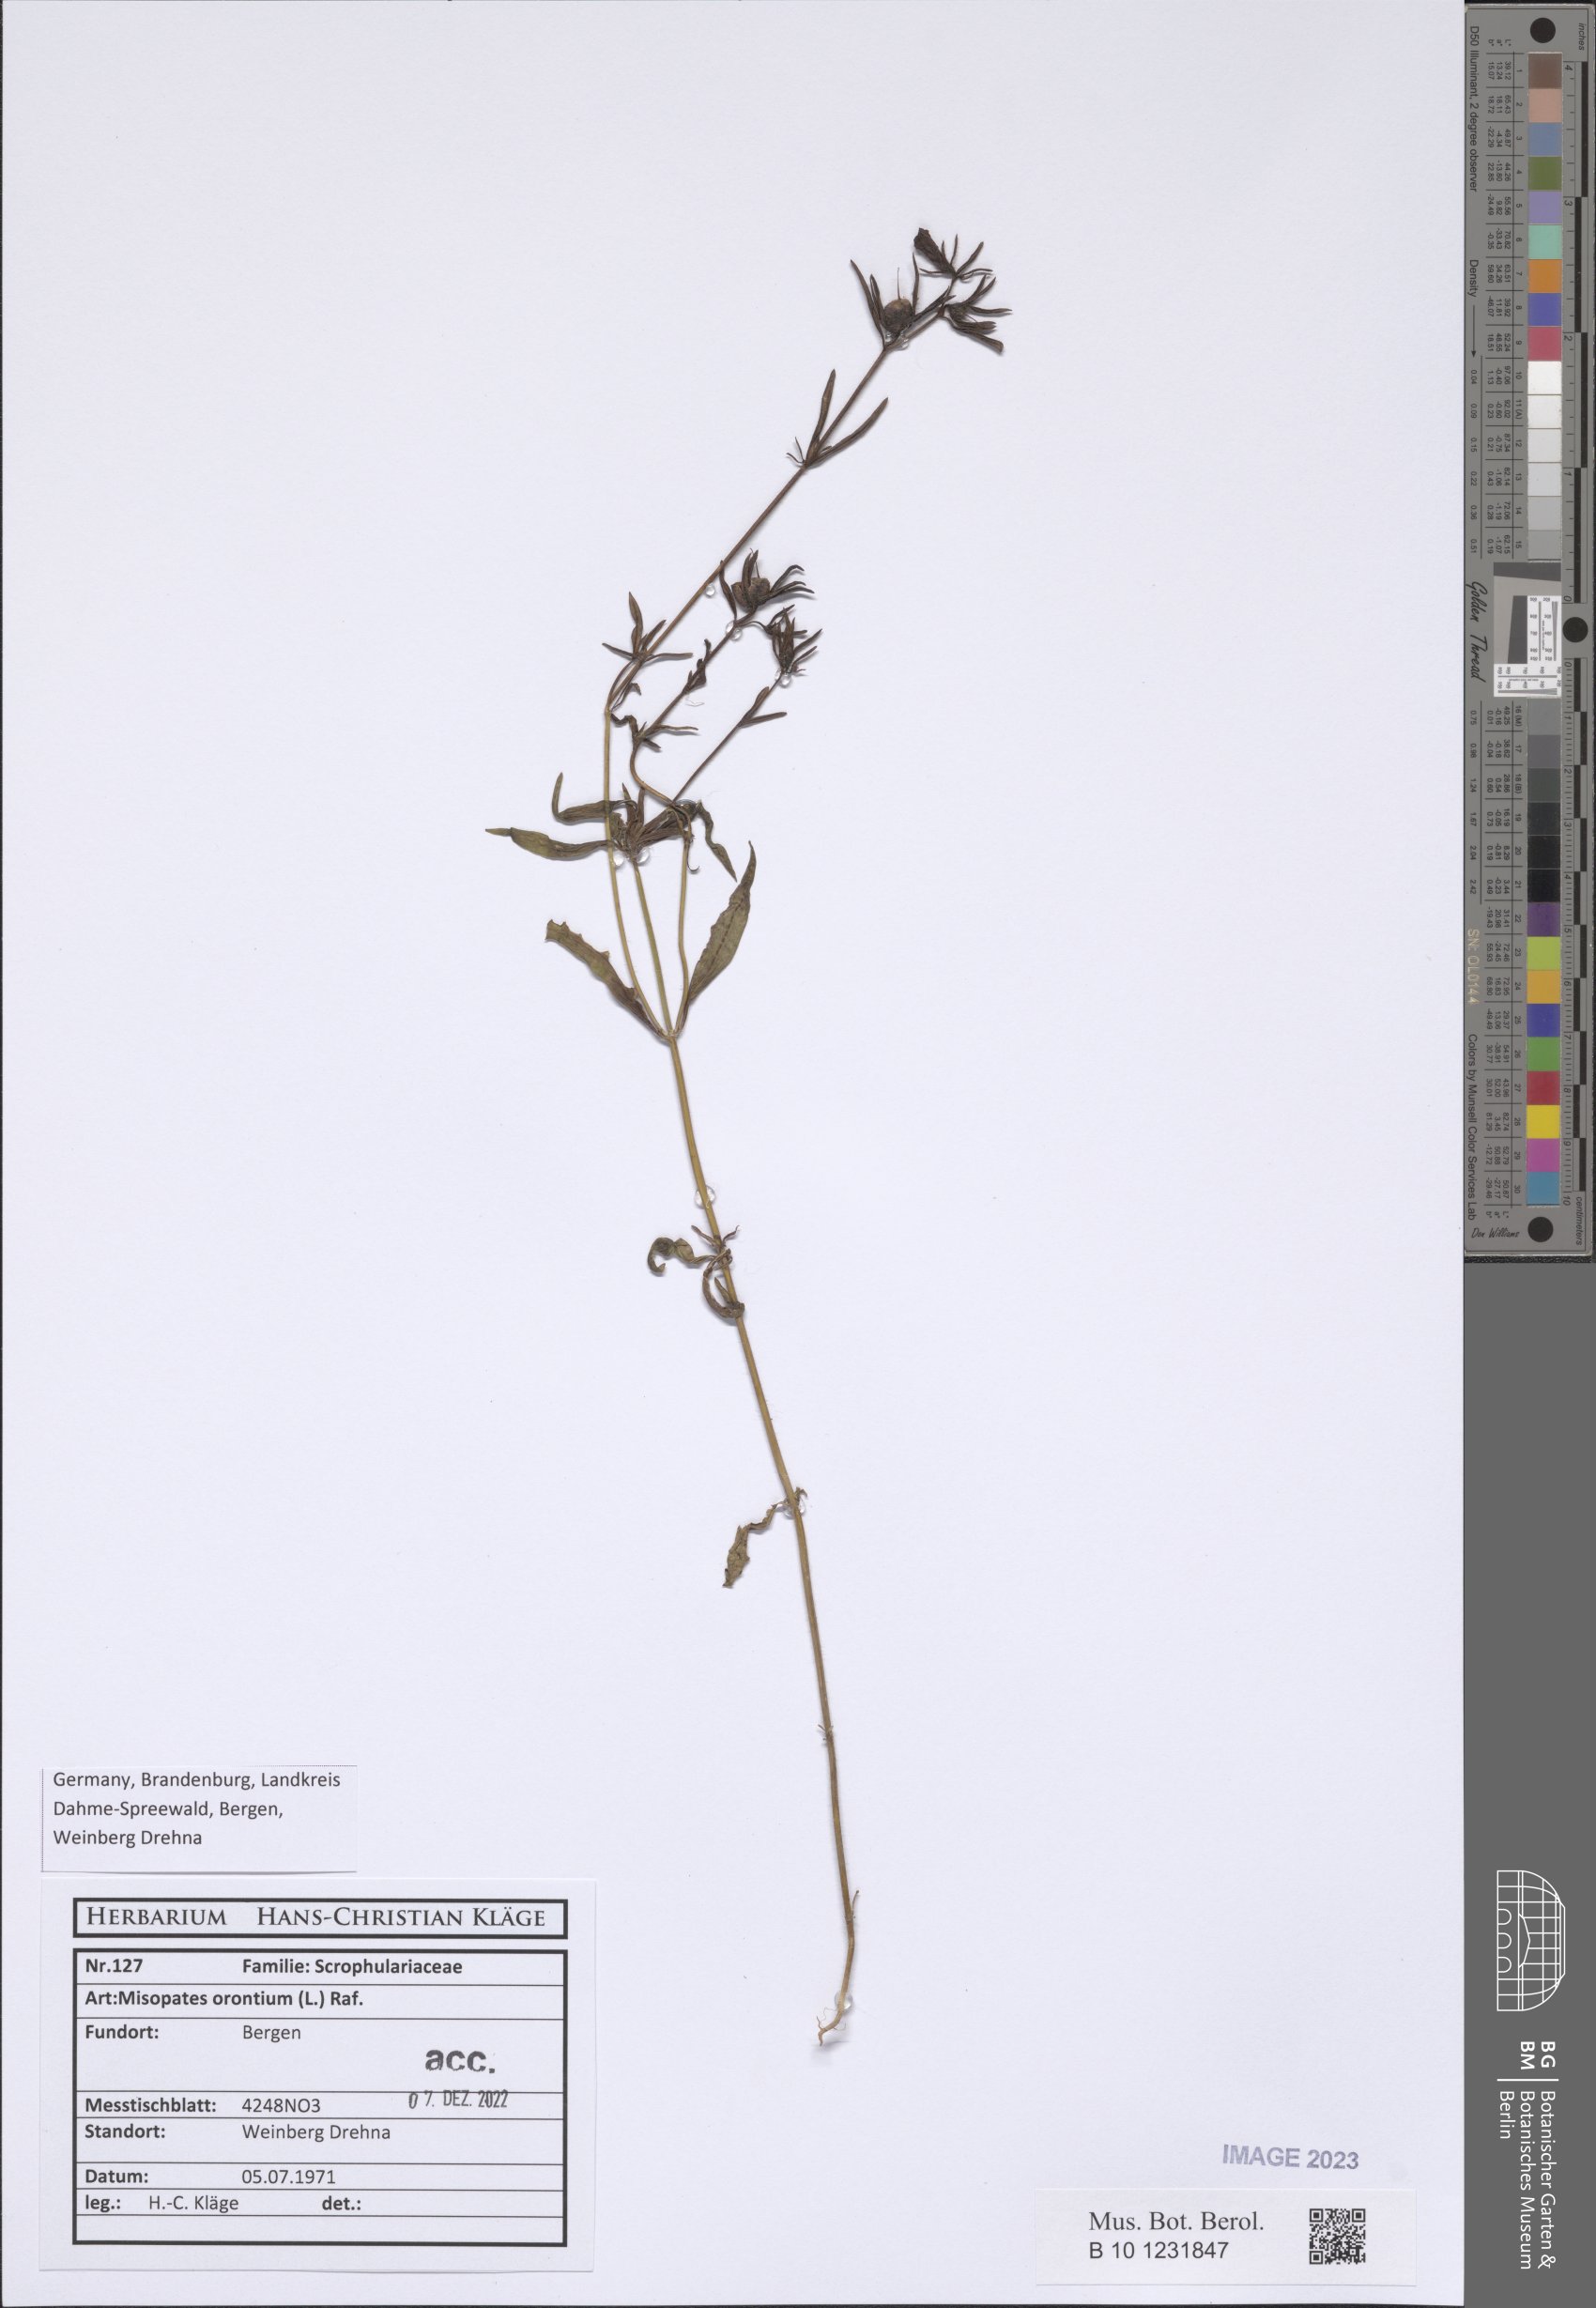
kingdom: Plantae
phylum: Tracheophyta
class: Magnoliopsida
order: Lamiales
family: Plantaginaceae
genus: Misopates
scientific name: Misopates orontium
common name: Weasel's-snout
